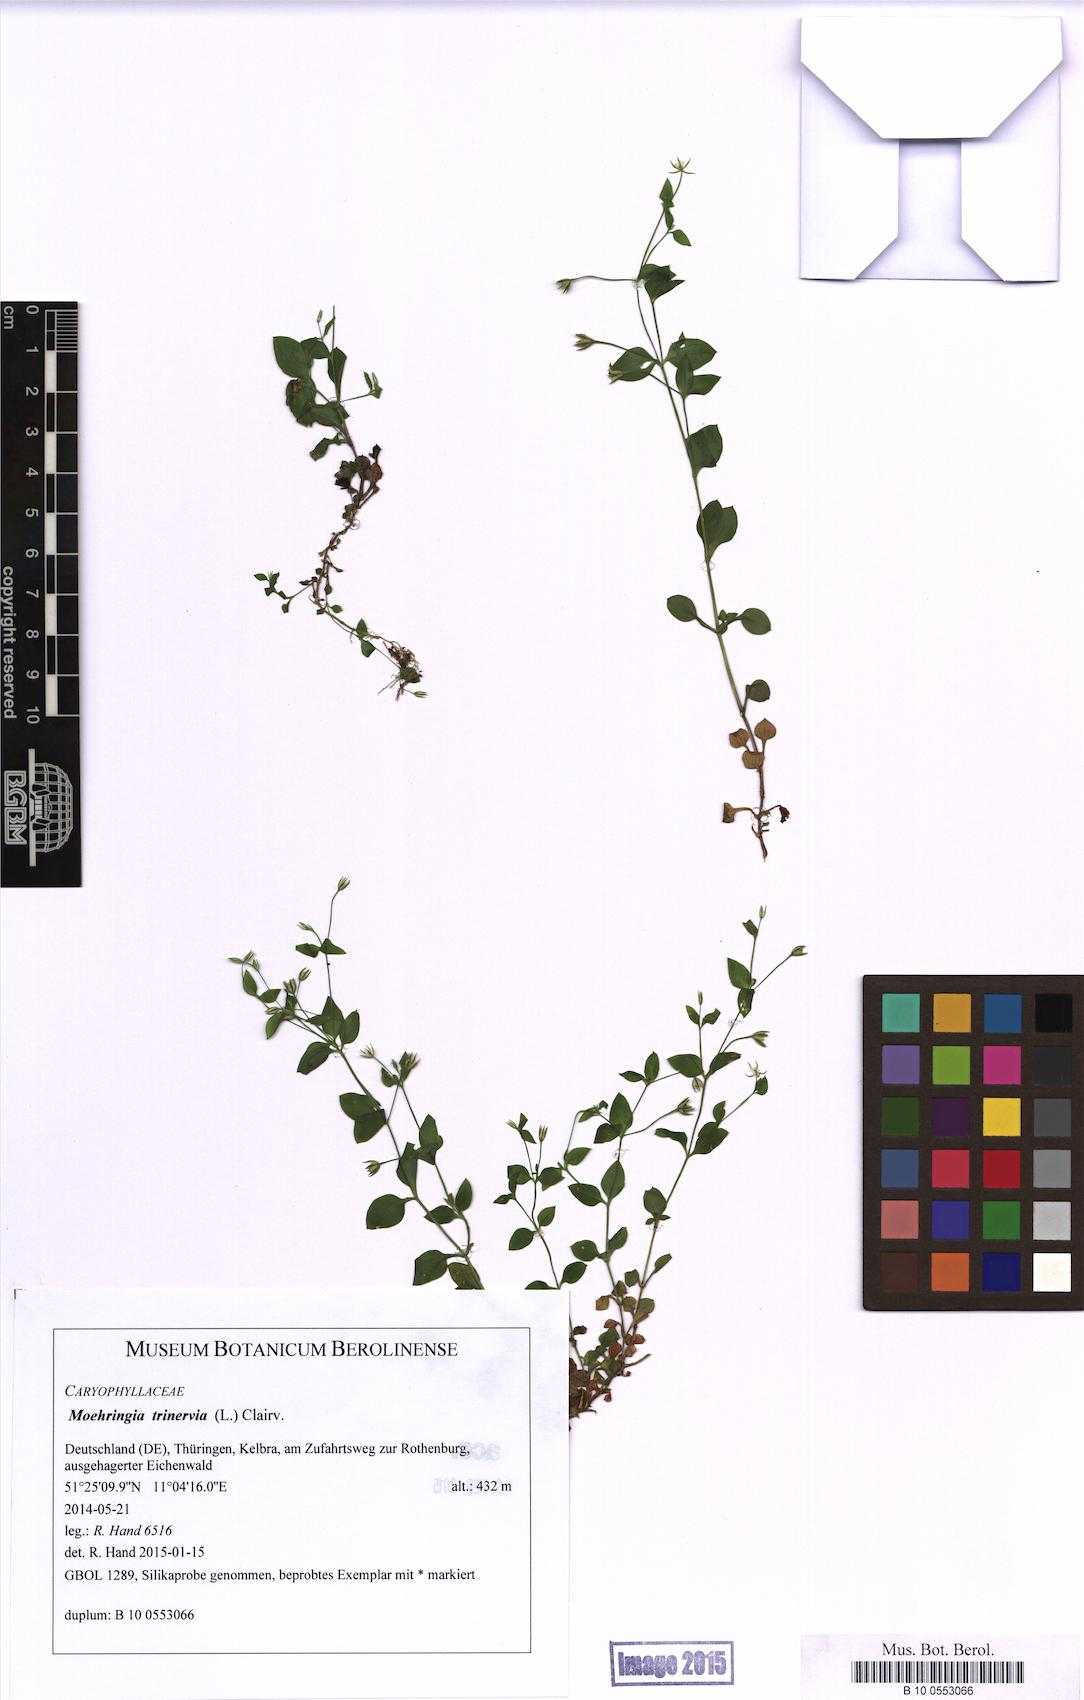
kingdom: Plantae
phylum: Tracheophyta
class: Magnoliopsida
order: Caryophyllales
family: Caryophyllaceae
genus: Moehringia
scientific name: Moehringia trinervia
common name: Three-nerved sandwort
